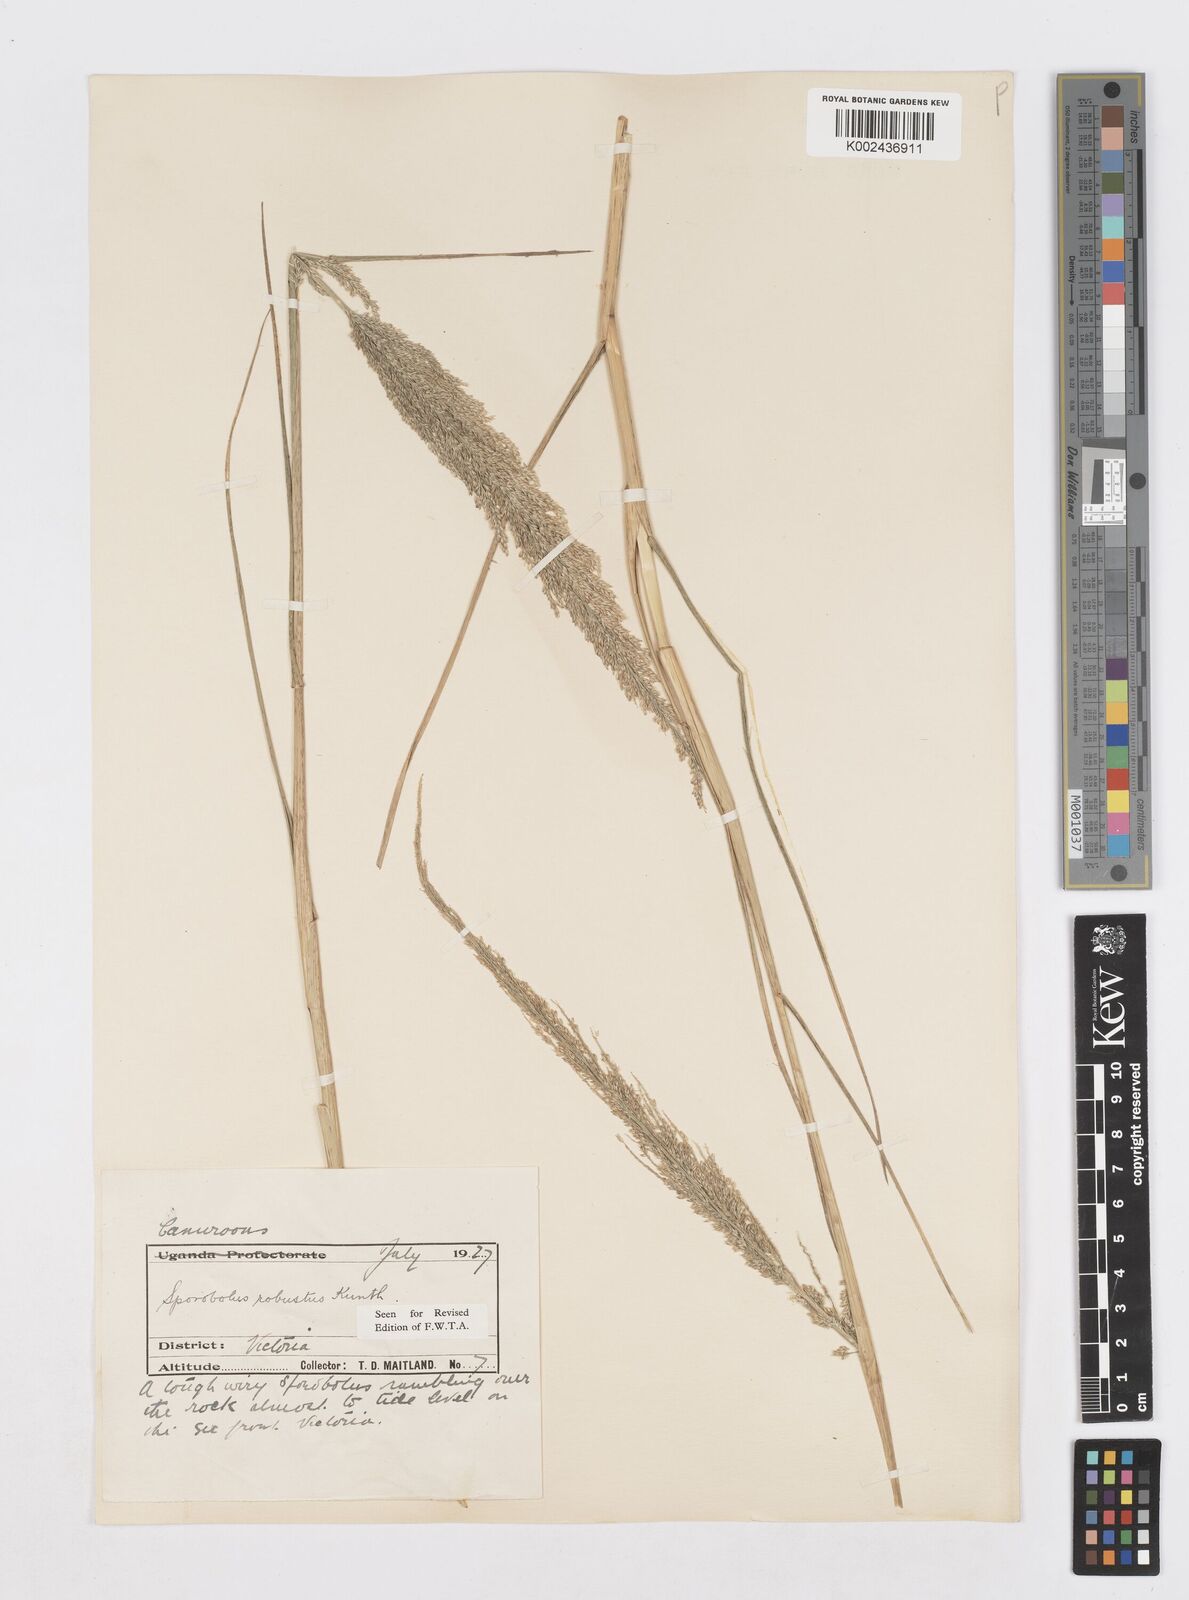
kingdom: Plantae
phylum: Tracheophyta
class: Liliopsida
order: Poales
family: Poaceae
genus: Sporobolus
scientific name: Sporobolus robustus
